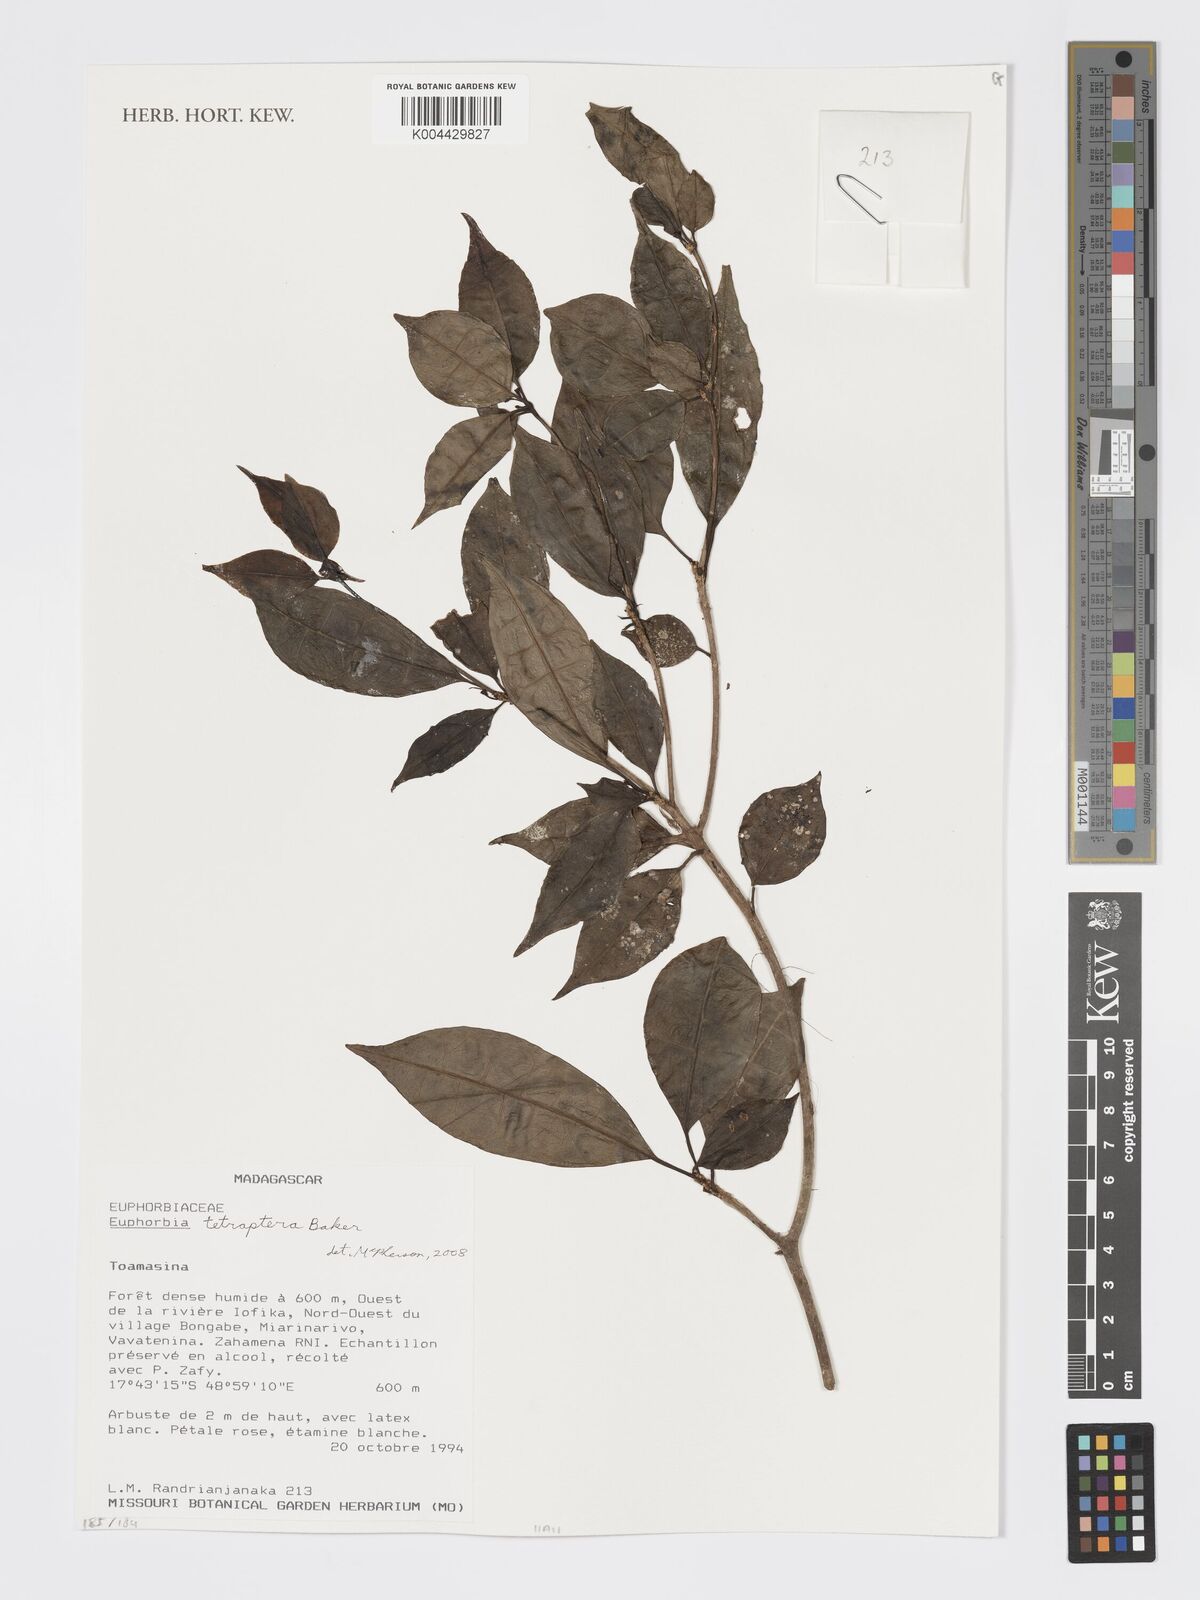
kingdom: Plantae
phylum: Tracheophyta
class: Magnoliopsida
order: Malpighiales
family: Euphorbiaceae
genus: Euphorbia
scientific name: Euphorbia tetraptera
